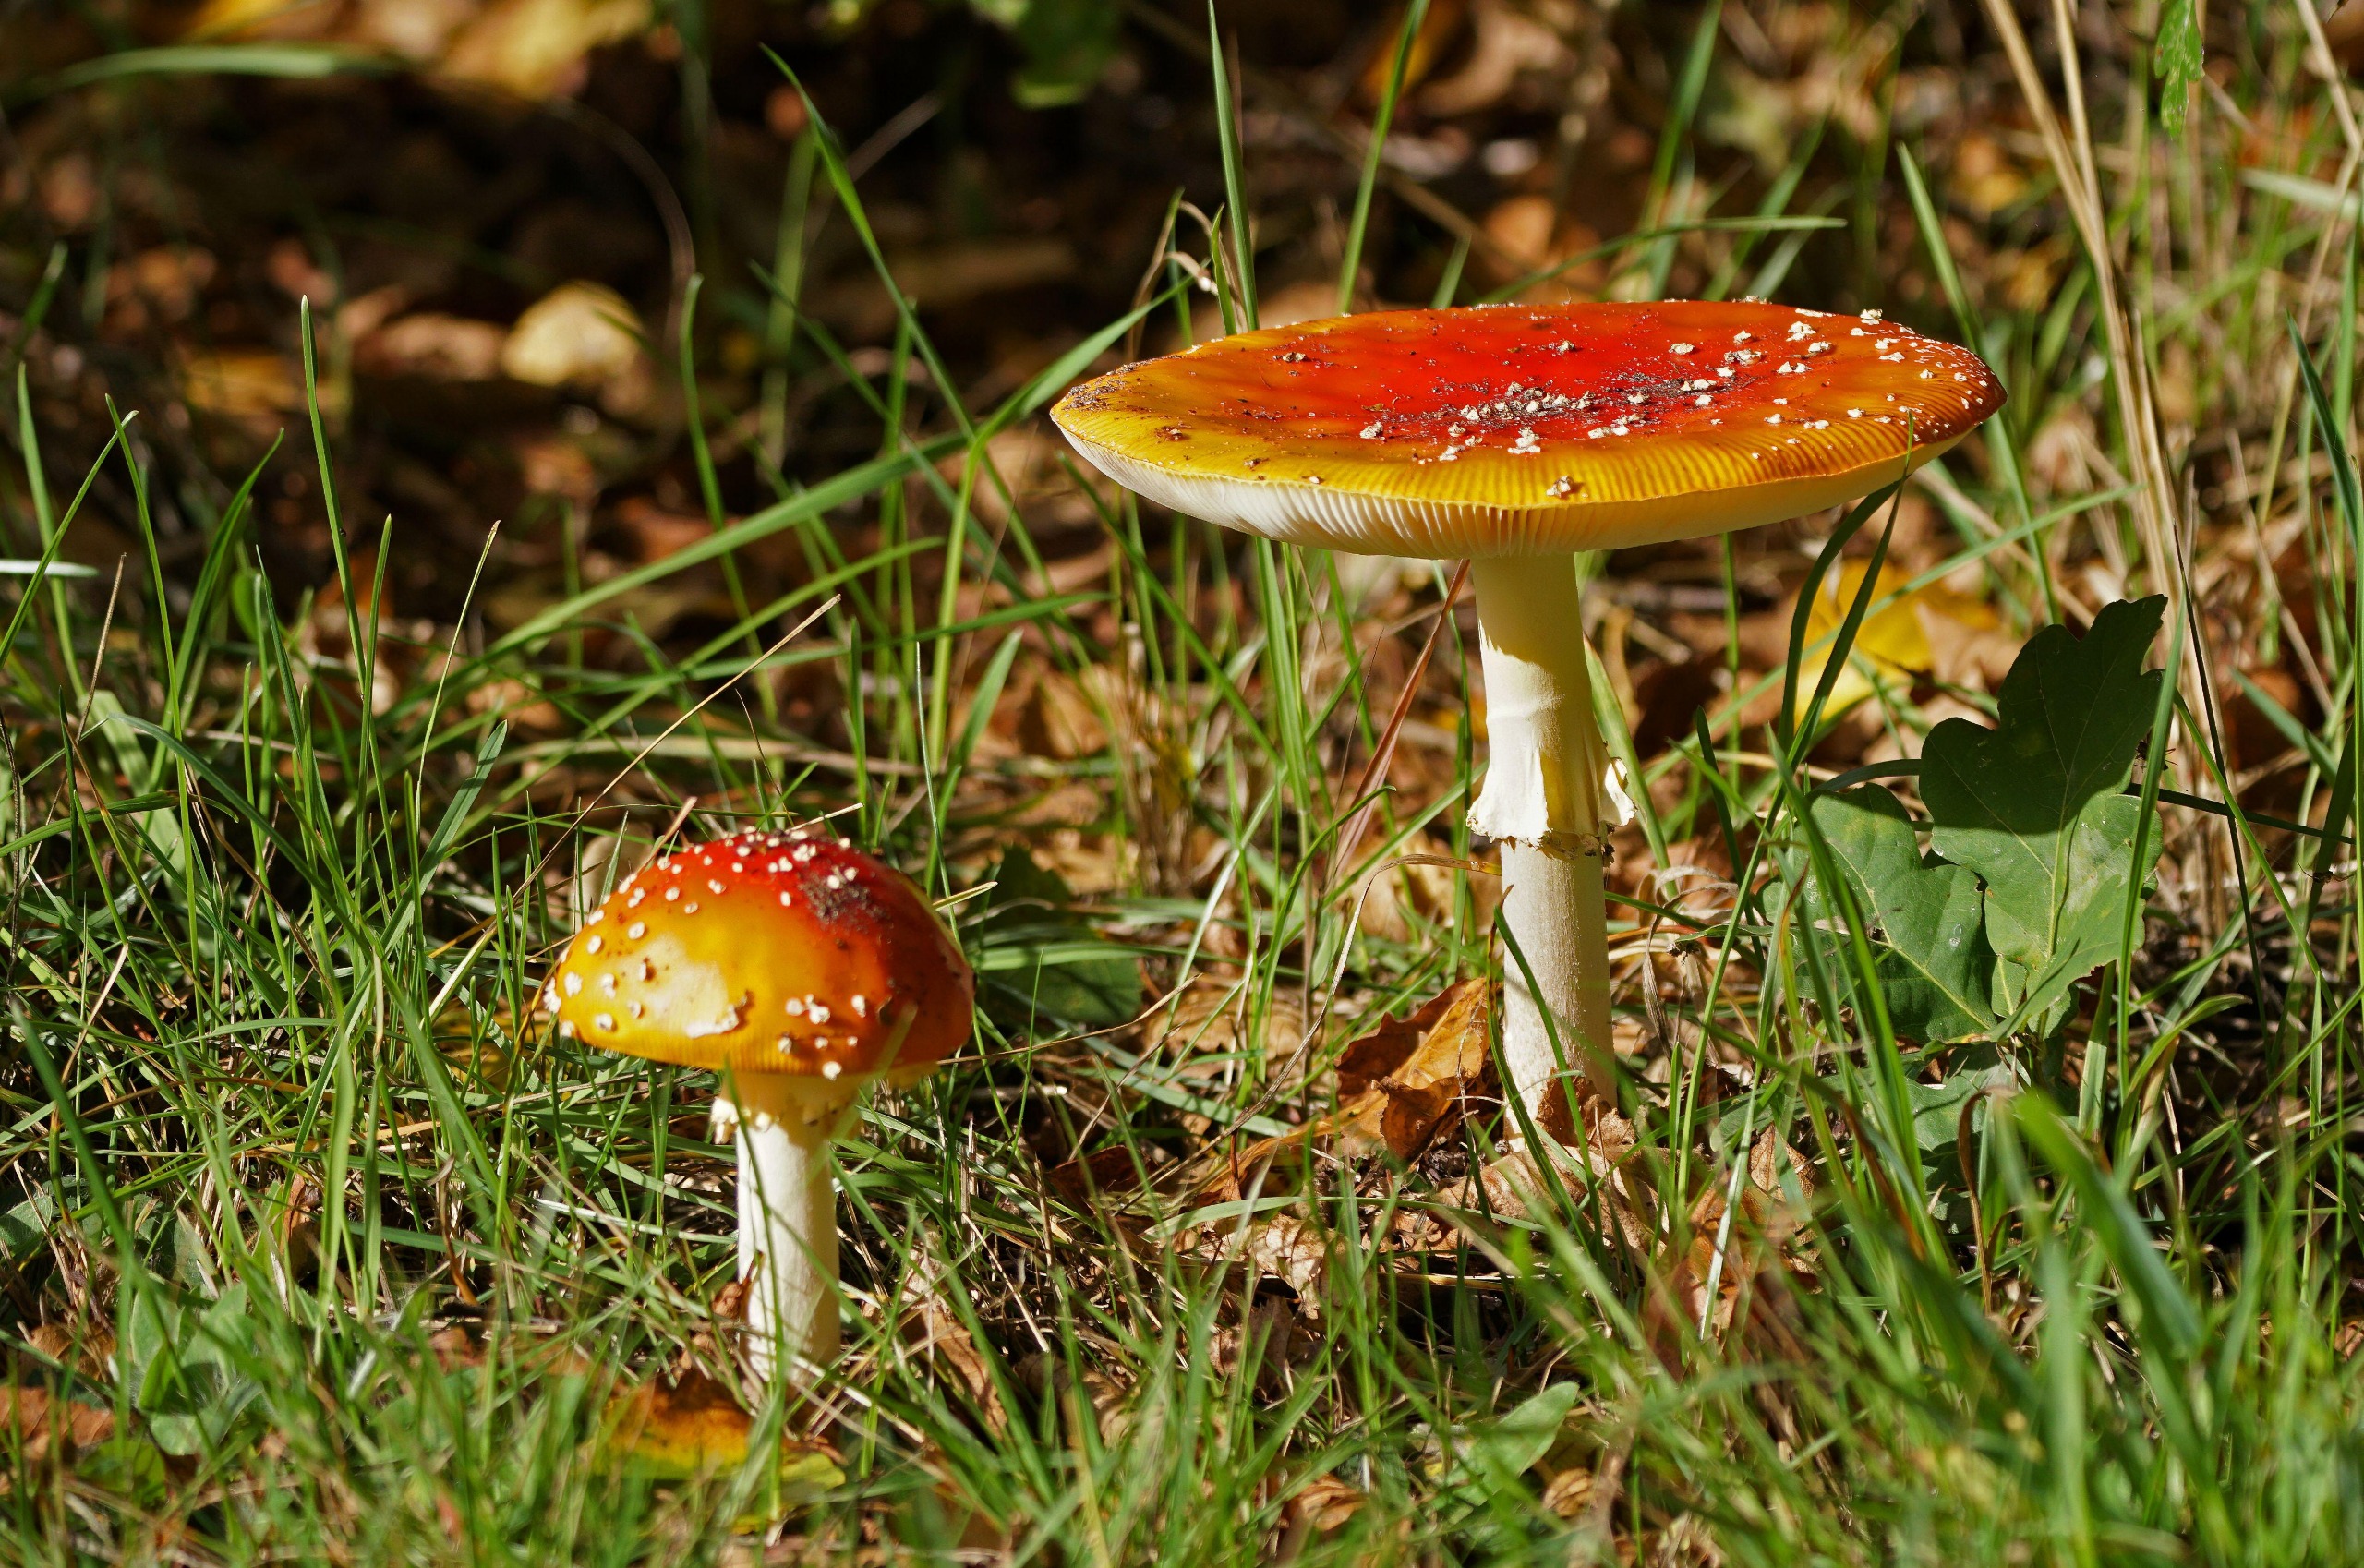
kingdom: Fungi
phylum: Basidiomycota
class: Agaricomycetes
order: Agaricales
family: Amanitaceae
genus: Amanita
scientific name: Amanita muscaria
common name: Rød fluesvamp
